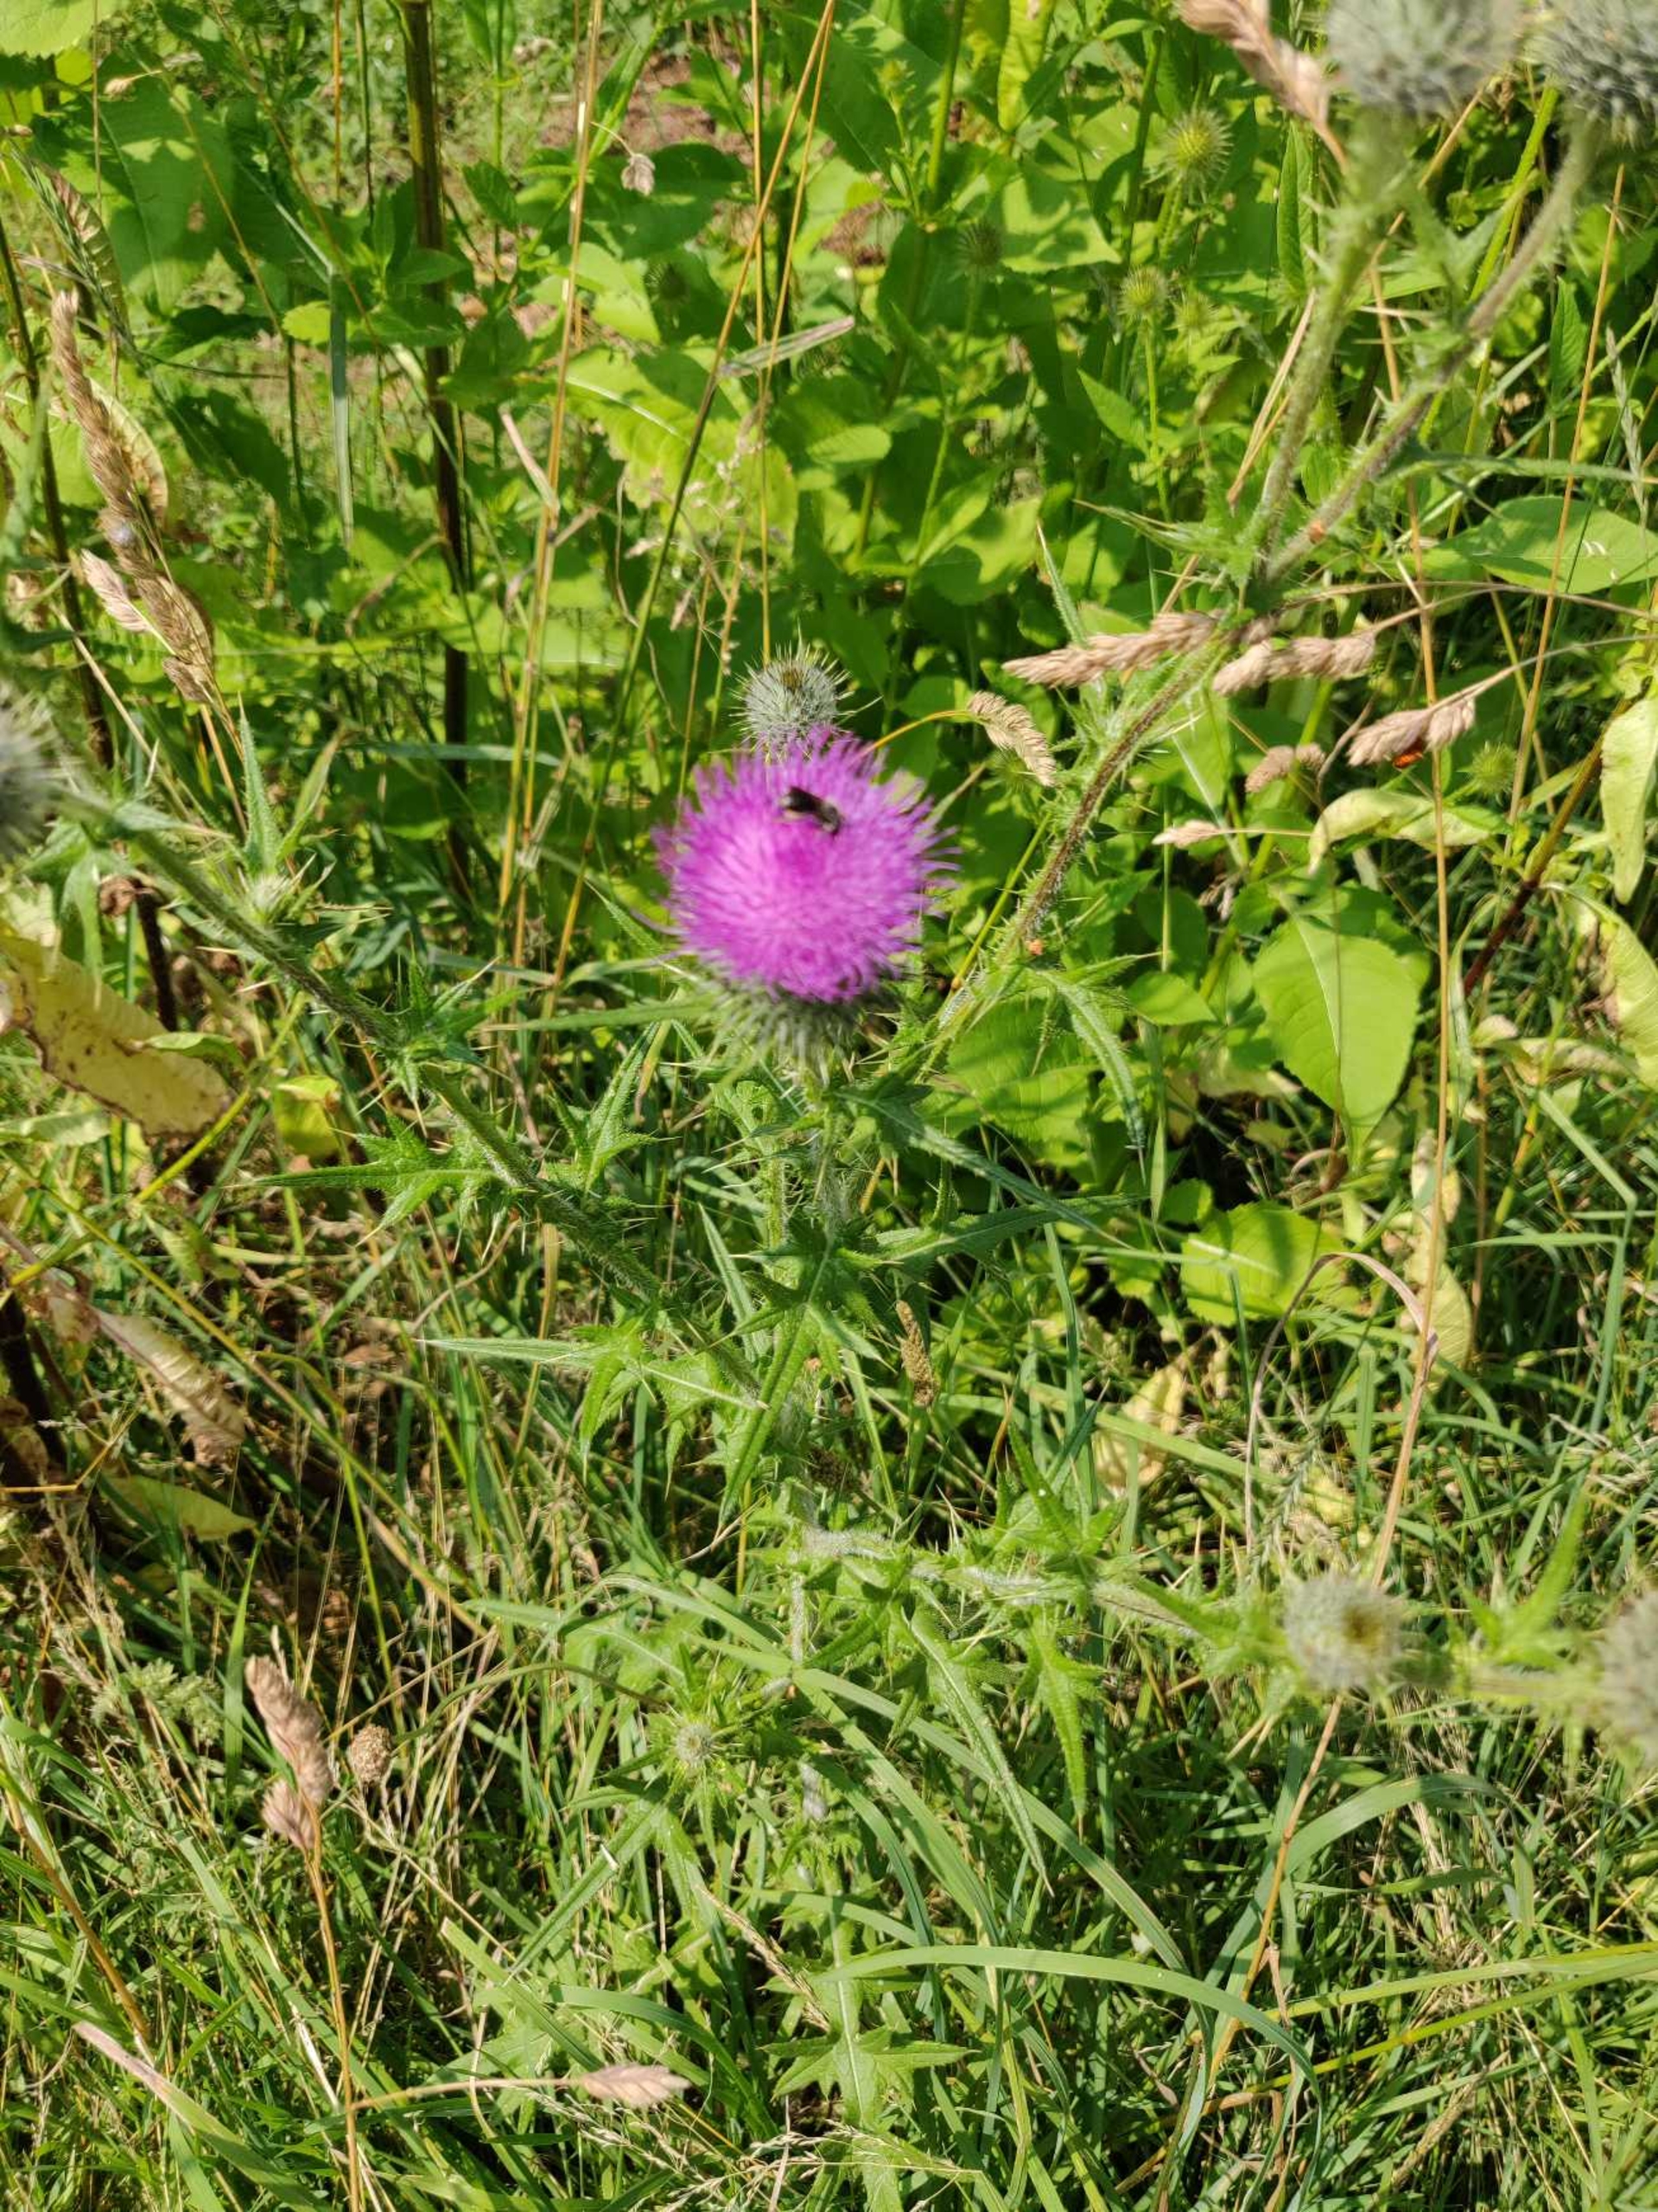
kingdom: Plantae
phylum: Tracheophyta
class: Magnoliopsida
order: Asterales
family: Asteraceae
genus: Cirsium
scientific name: Cirsium vulgare
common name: Horse-tidsel
